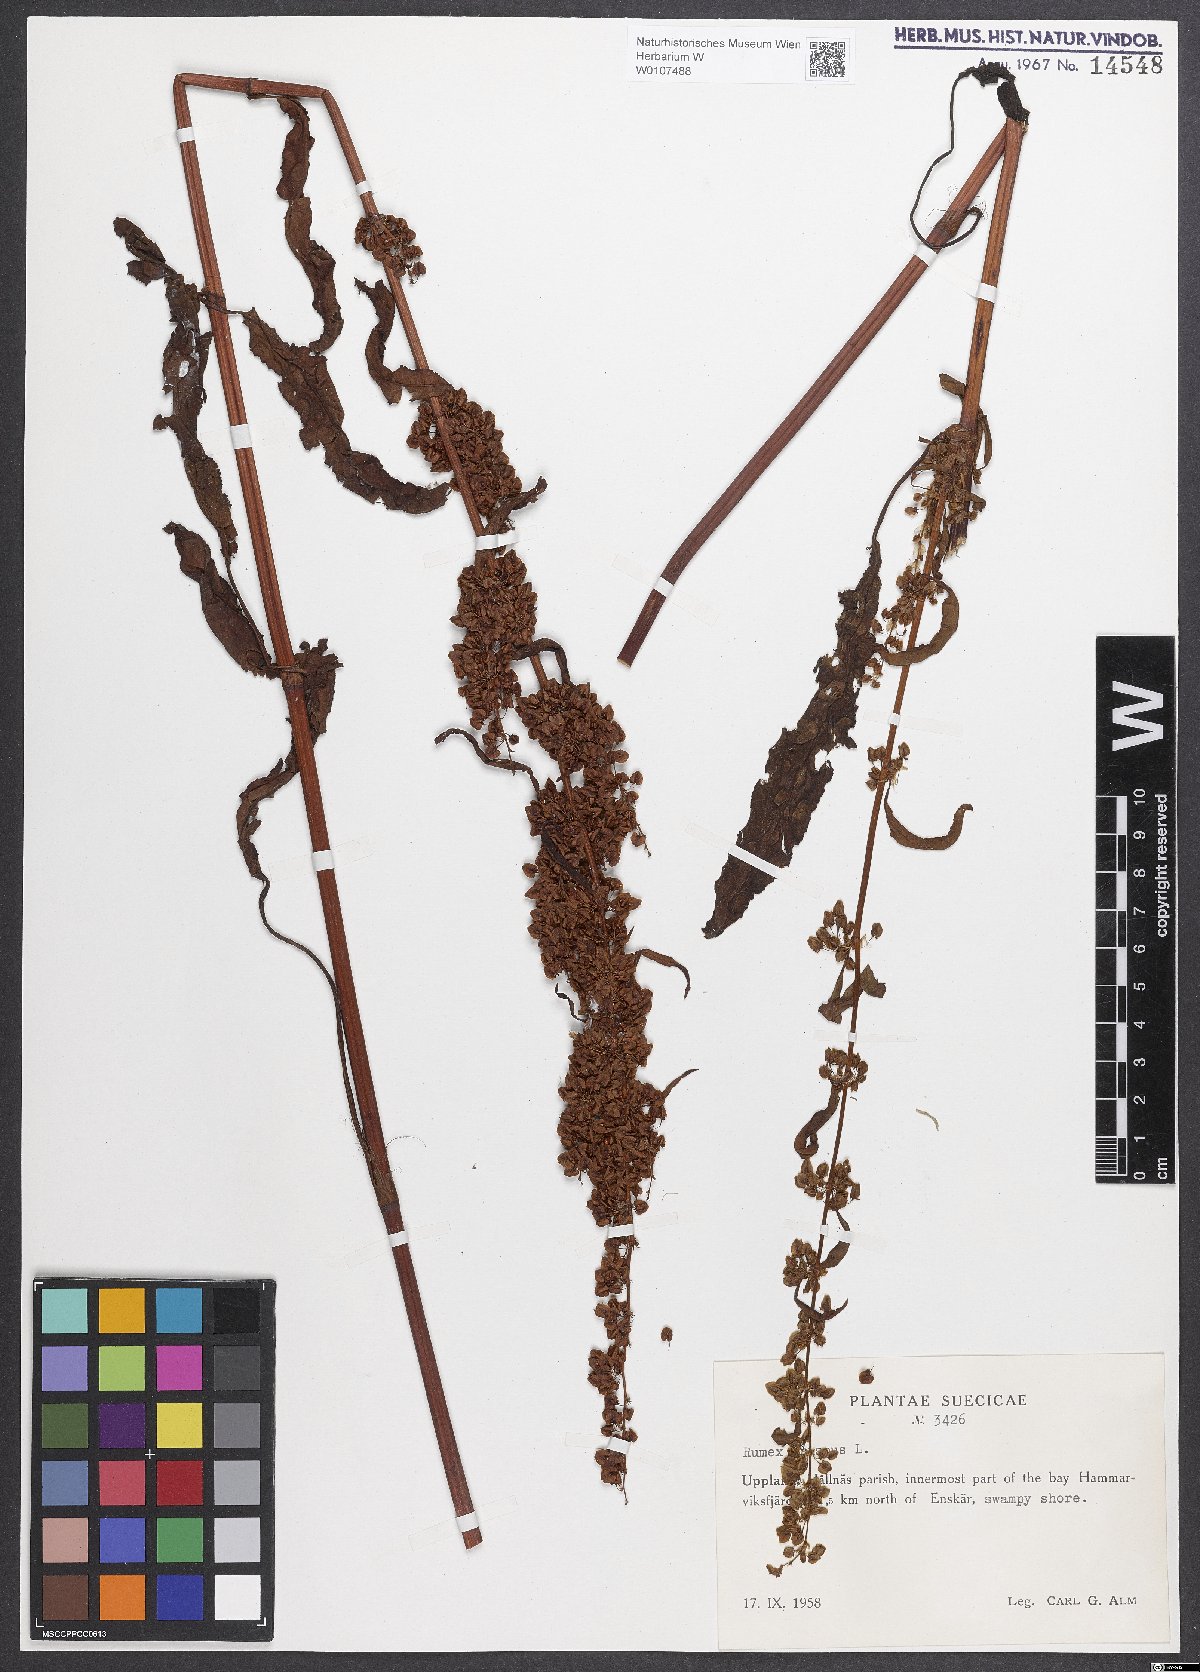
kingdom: Plantae
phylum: Tracheophyta
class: Magnoliopsida
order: Caryophyllales
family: Polygonaceae
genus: Rumex
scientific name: Rumex crispus
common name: Curled dock
